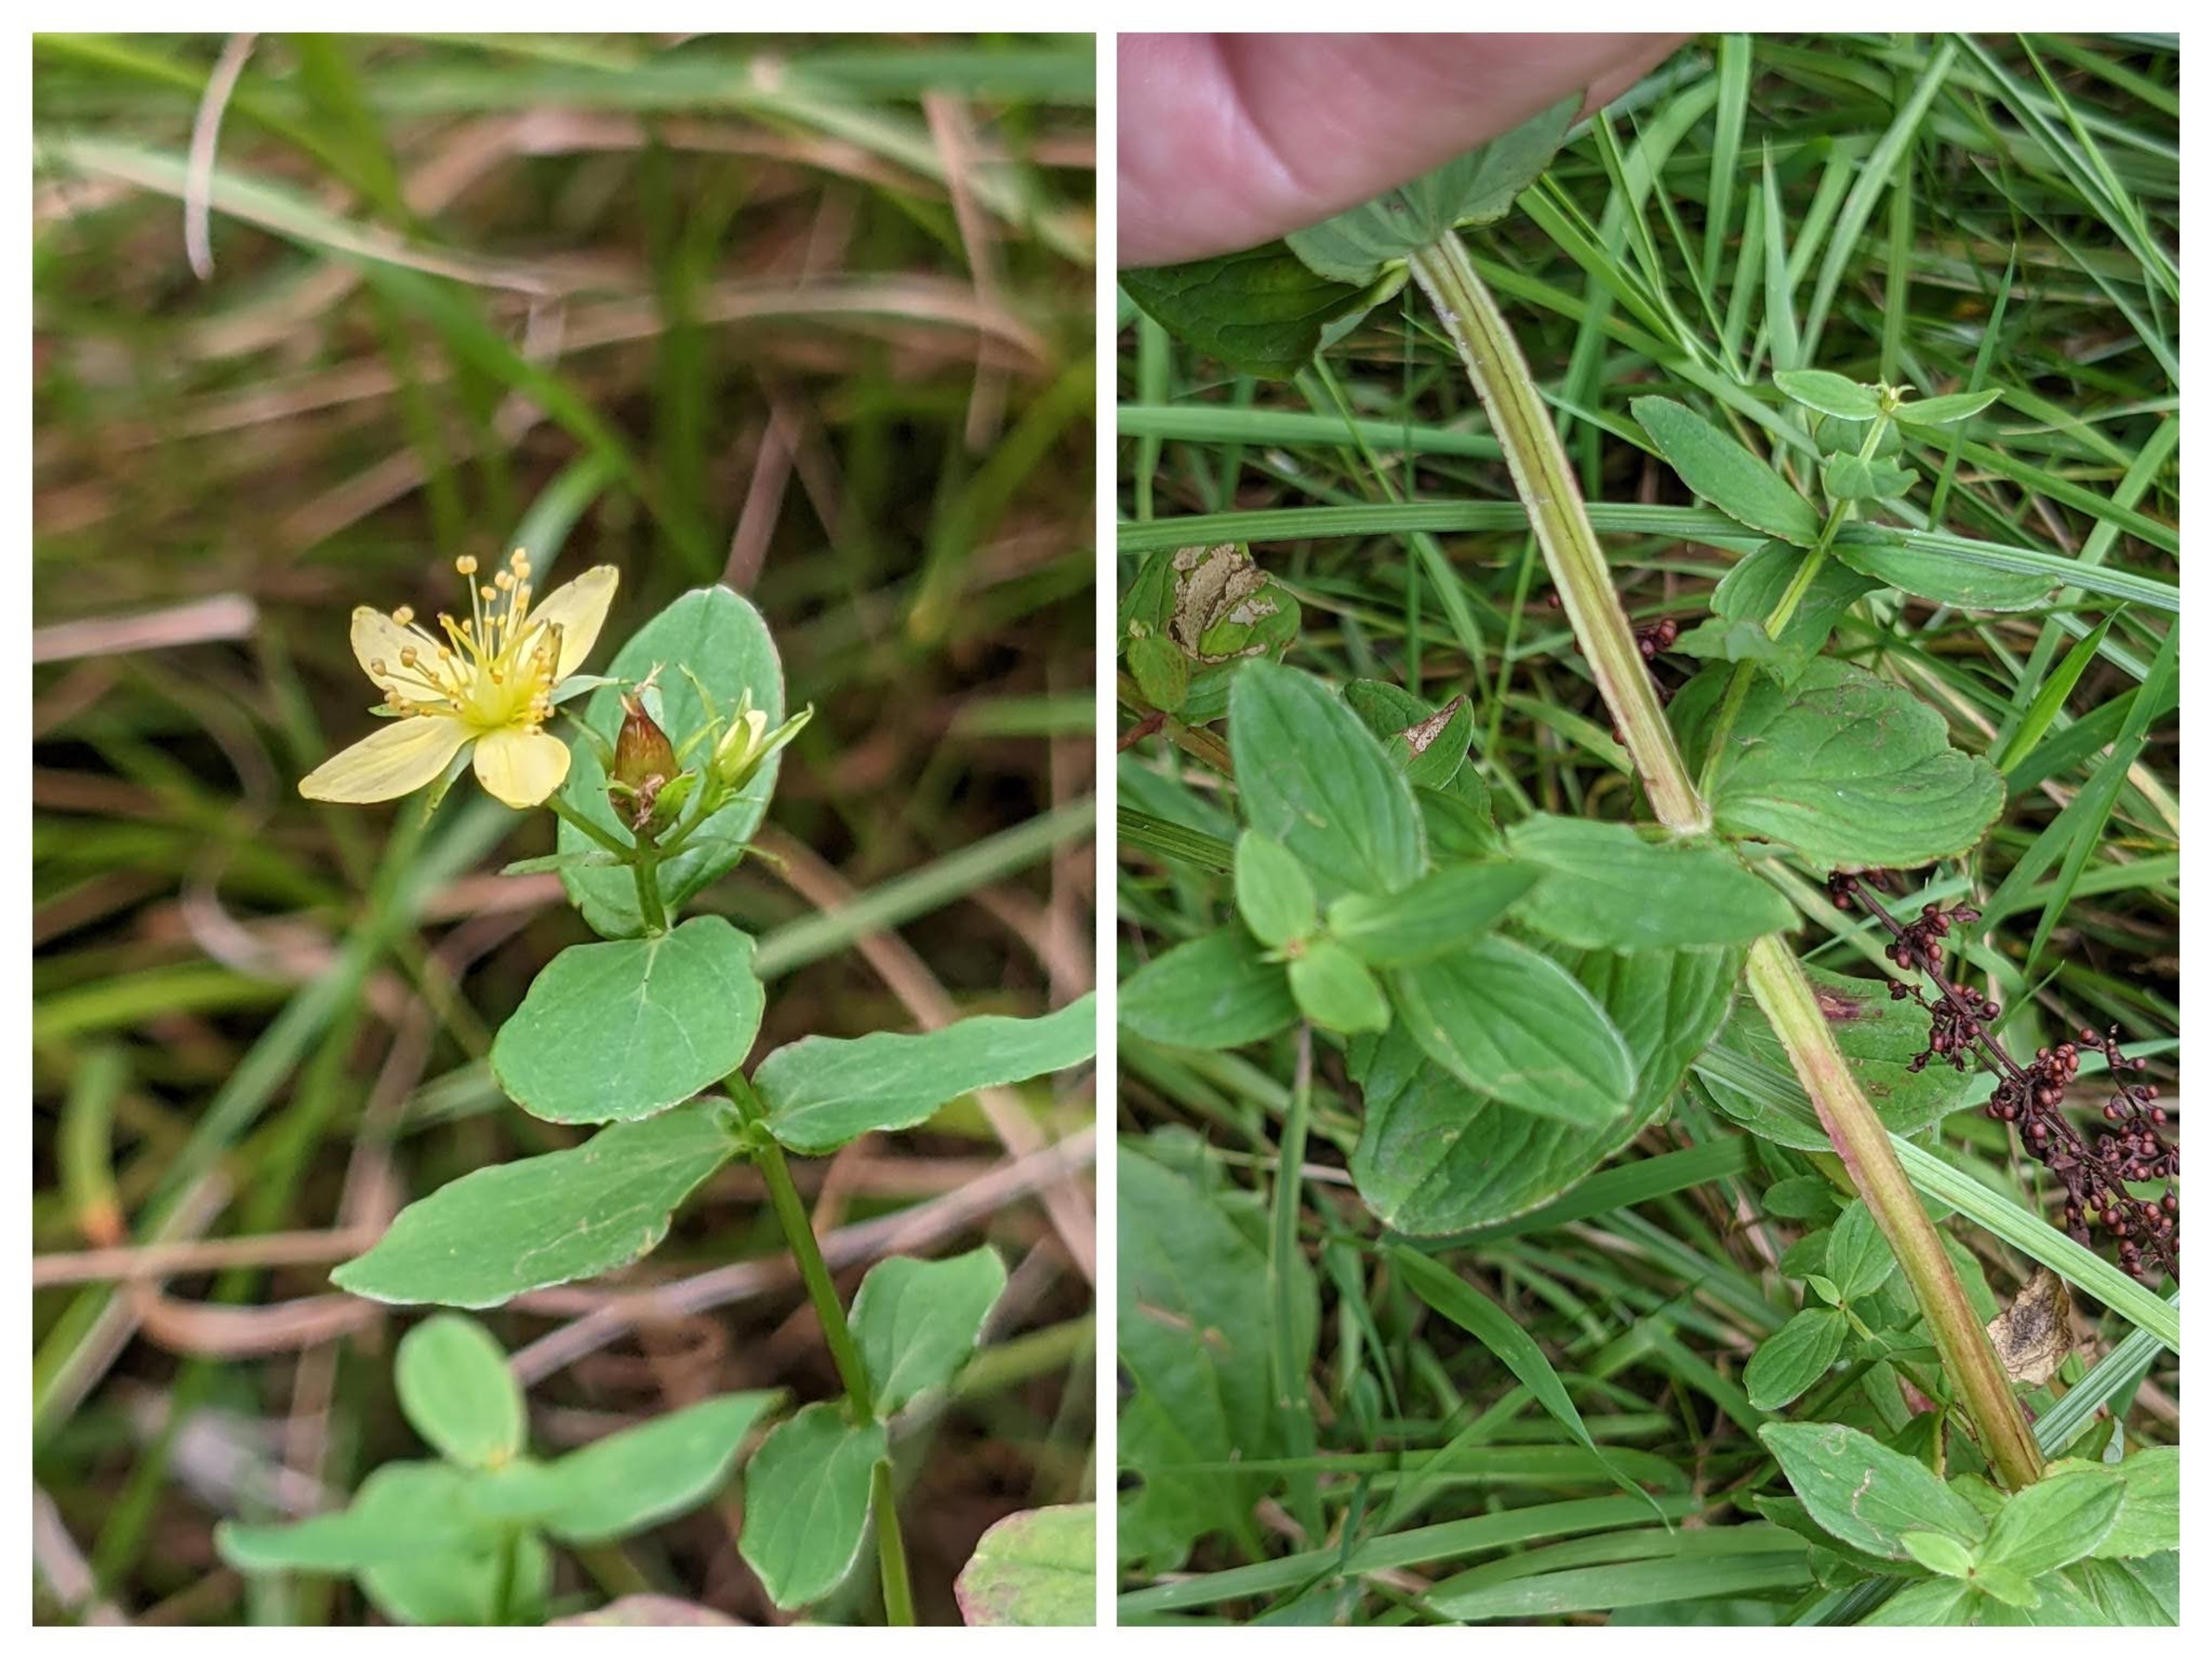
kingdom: Plantae
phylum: Tracheophyta
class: Magnoliopsida
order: Malpighiales
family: Hypericaceae
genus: Hypericum
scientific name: Hypericum tetrapterum
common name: Vinget perikon
